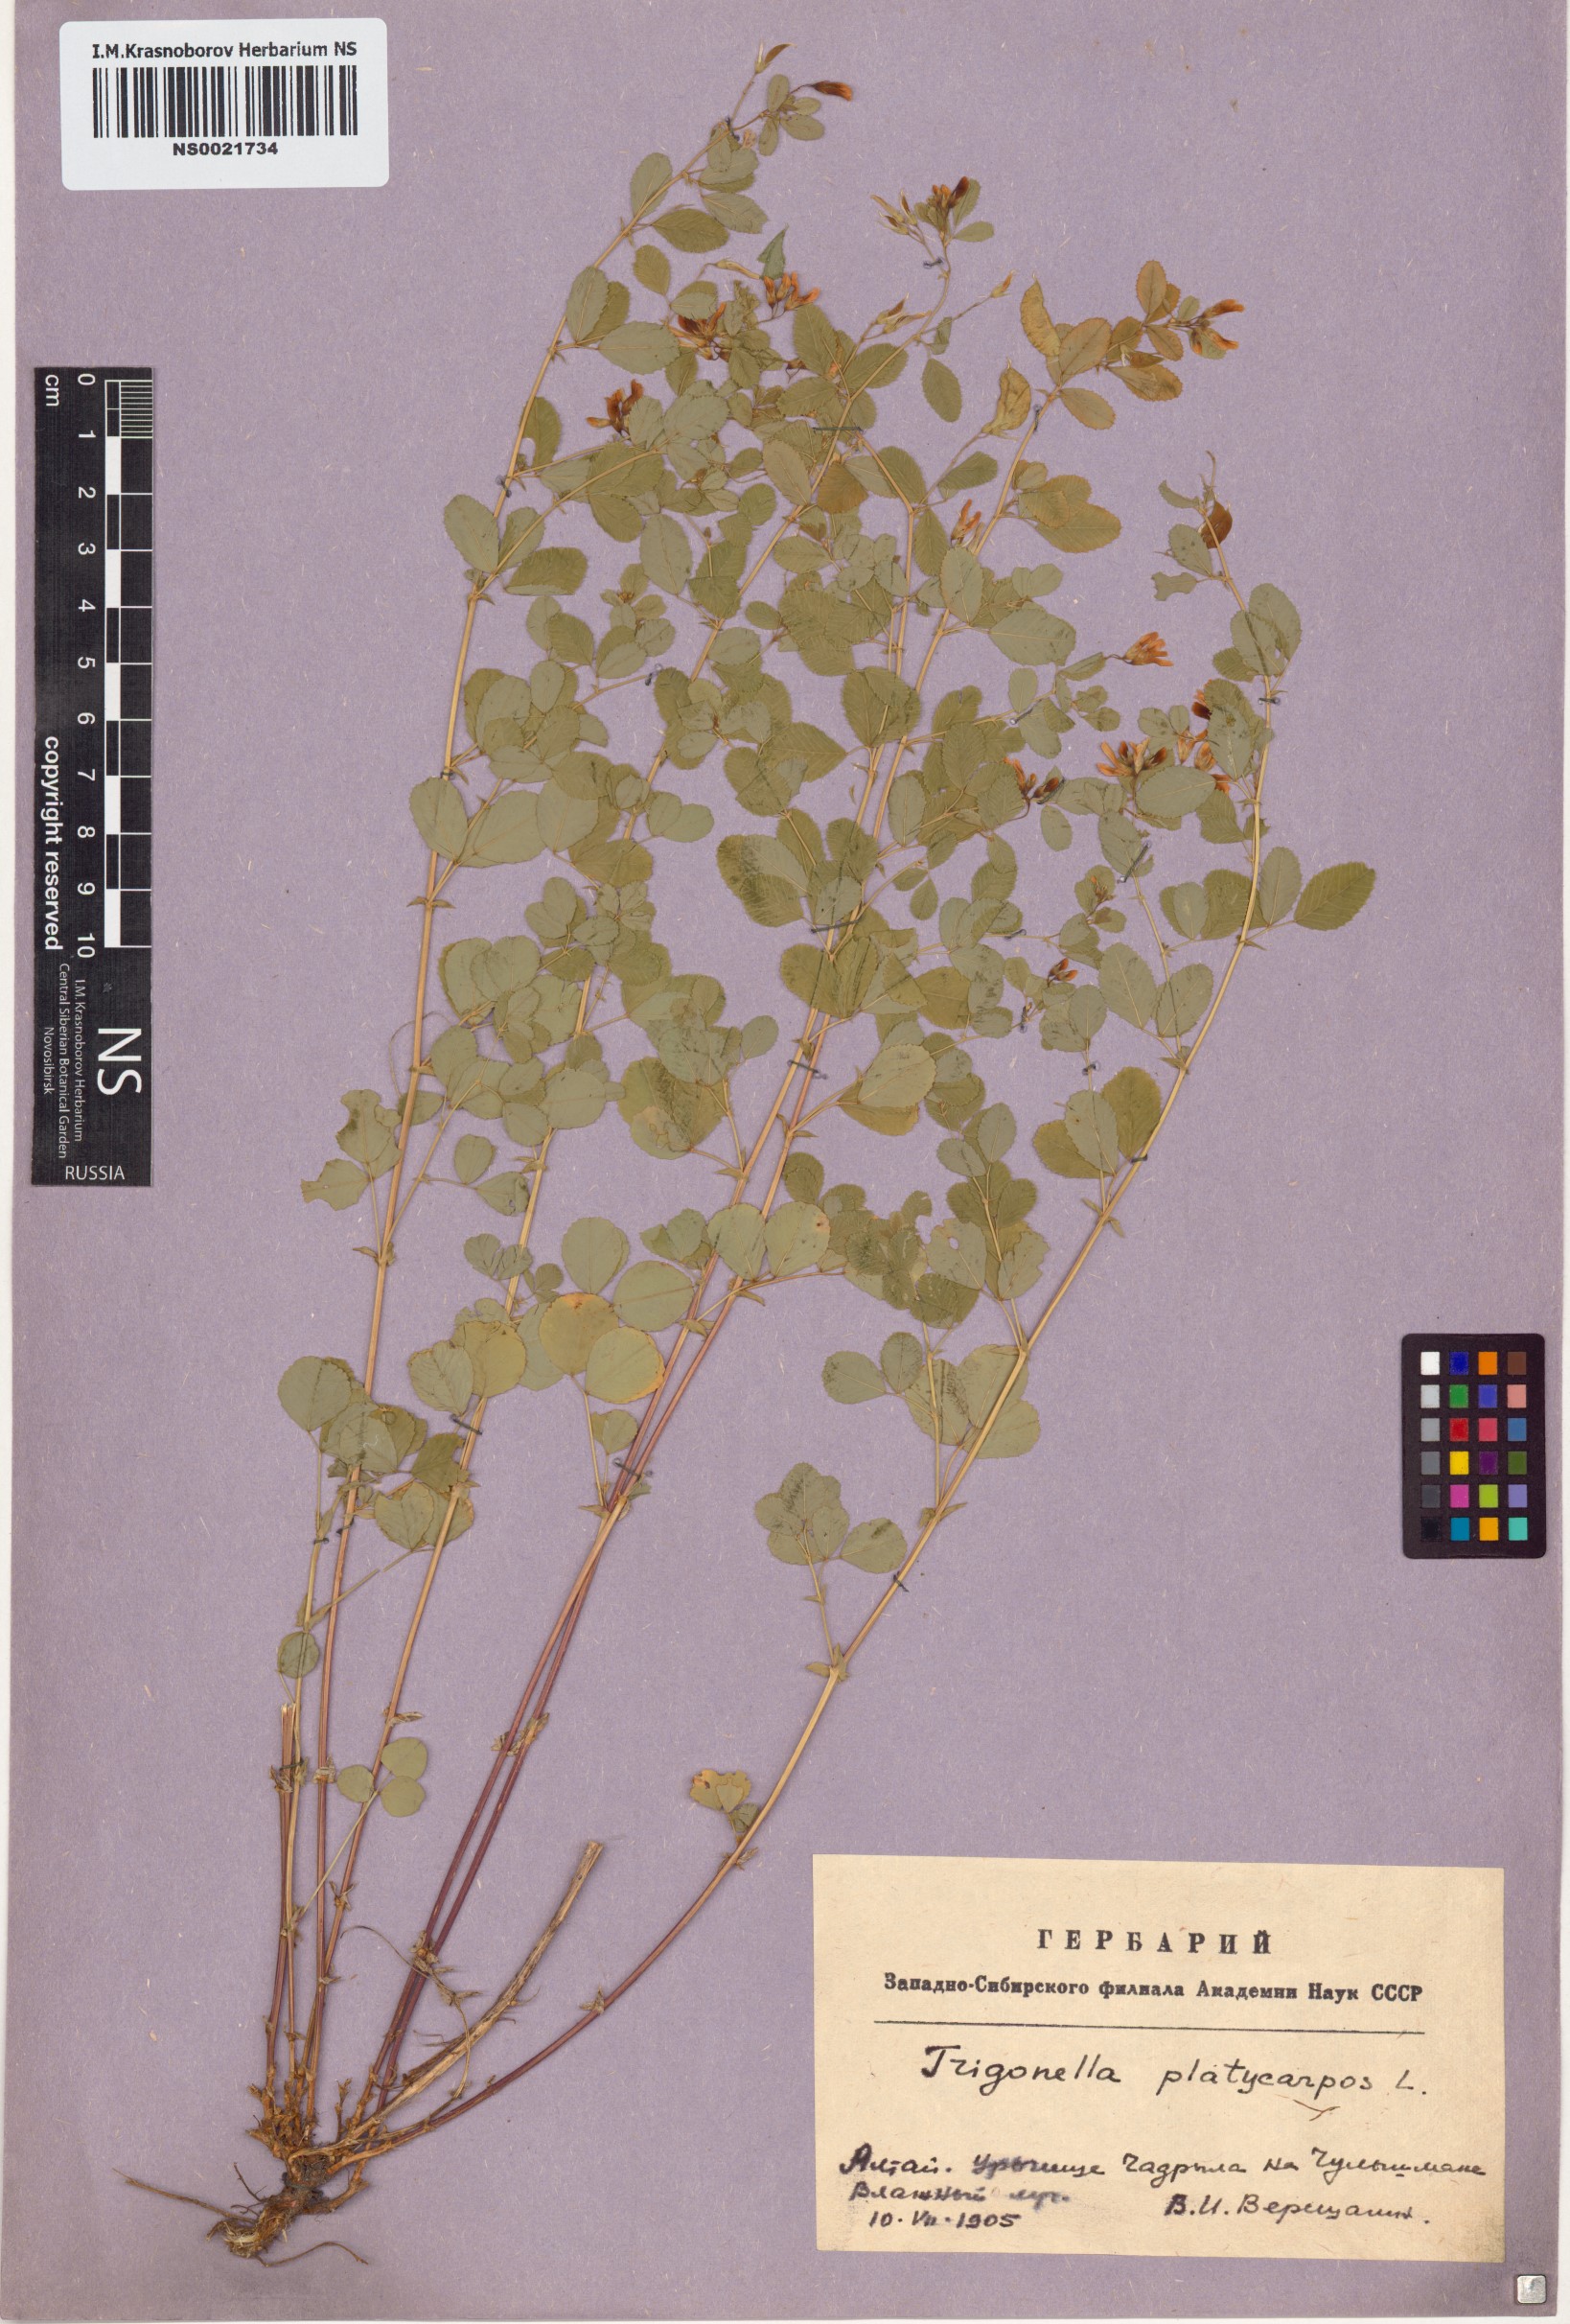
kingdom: Plantae
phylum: Tracheophyta
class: Magnoliopsida
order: Fabales
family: Fabaceae
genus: Medicago
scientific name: Medicago platycarpos
